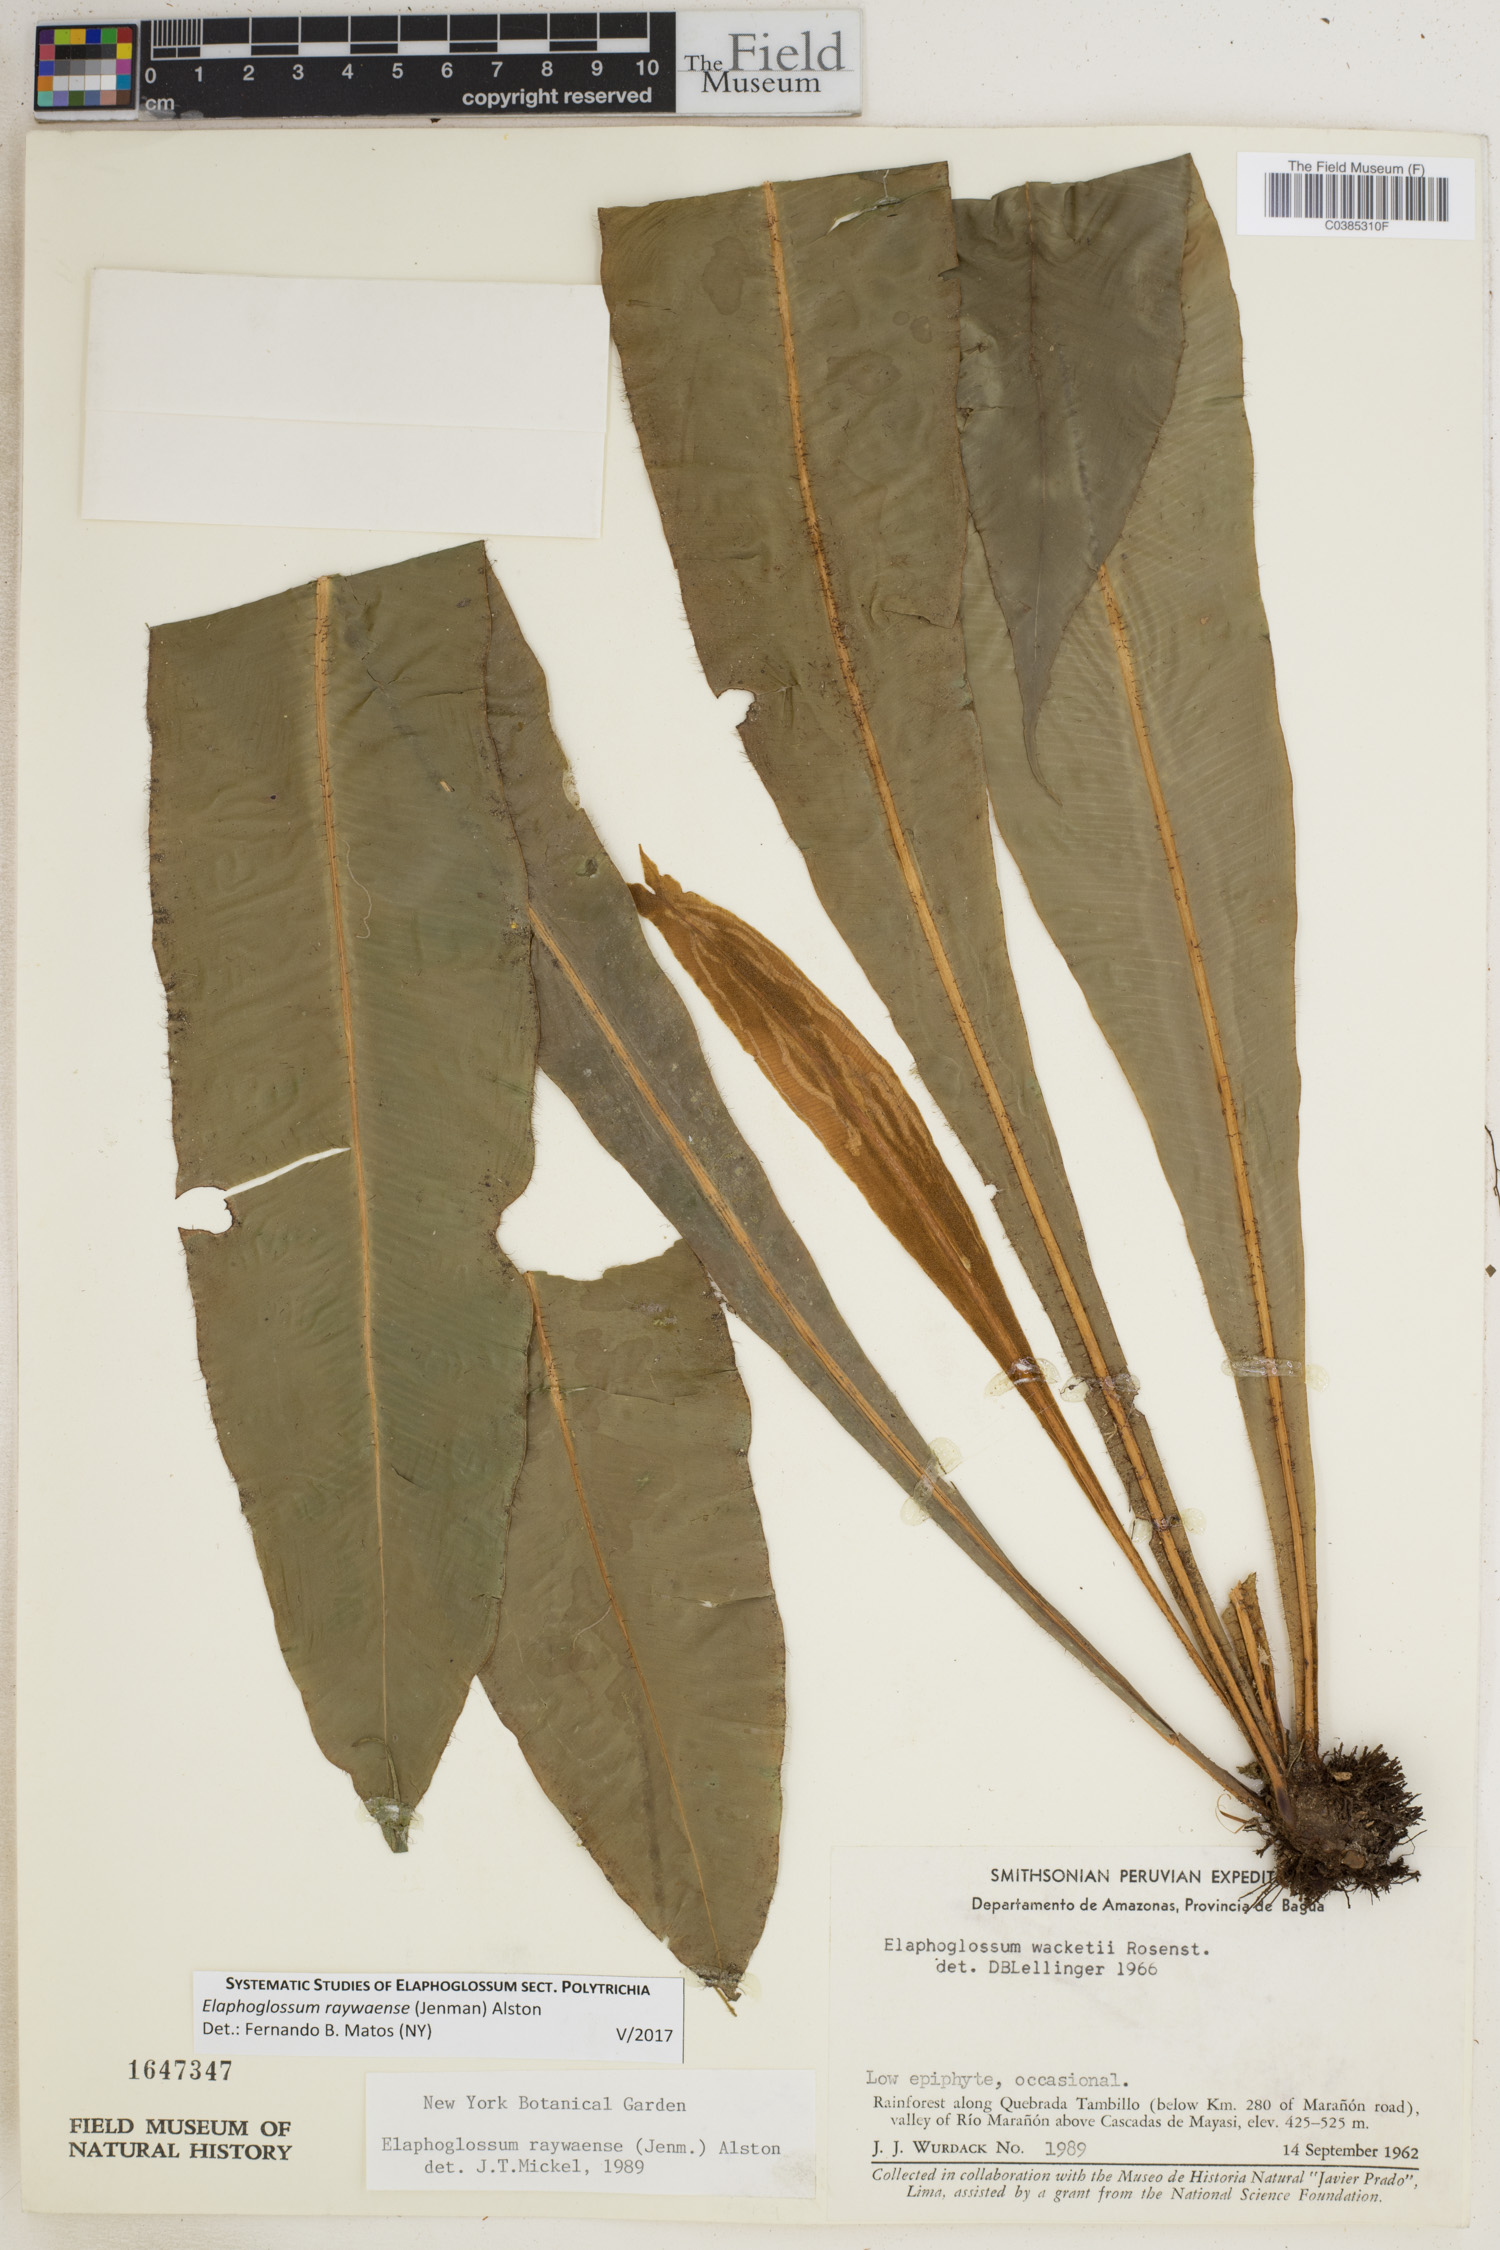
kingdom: Plantae
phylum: Tracheophyta
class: Polypodiopsida
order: Polypodiales
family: Dryopteridaceae
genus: Elaphoglossum
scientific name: Elaphoglossum raywaense
